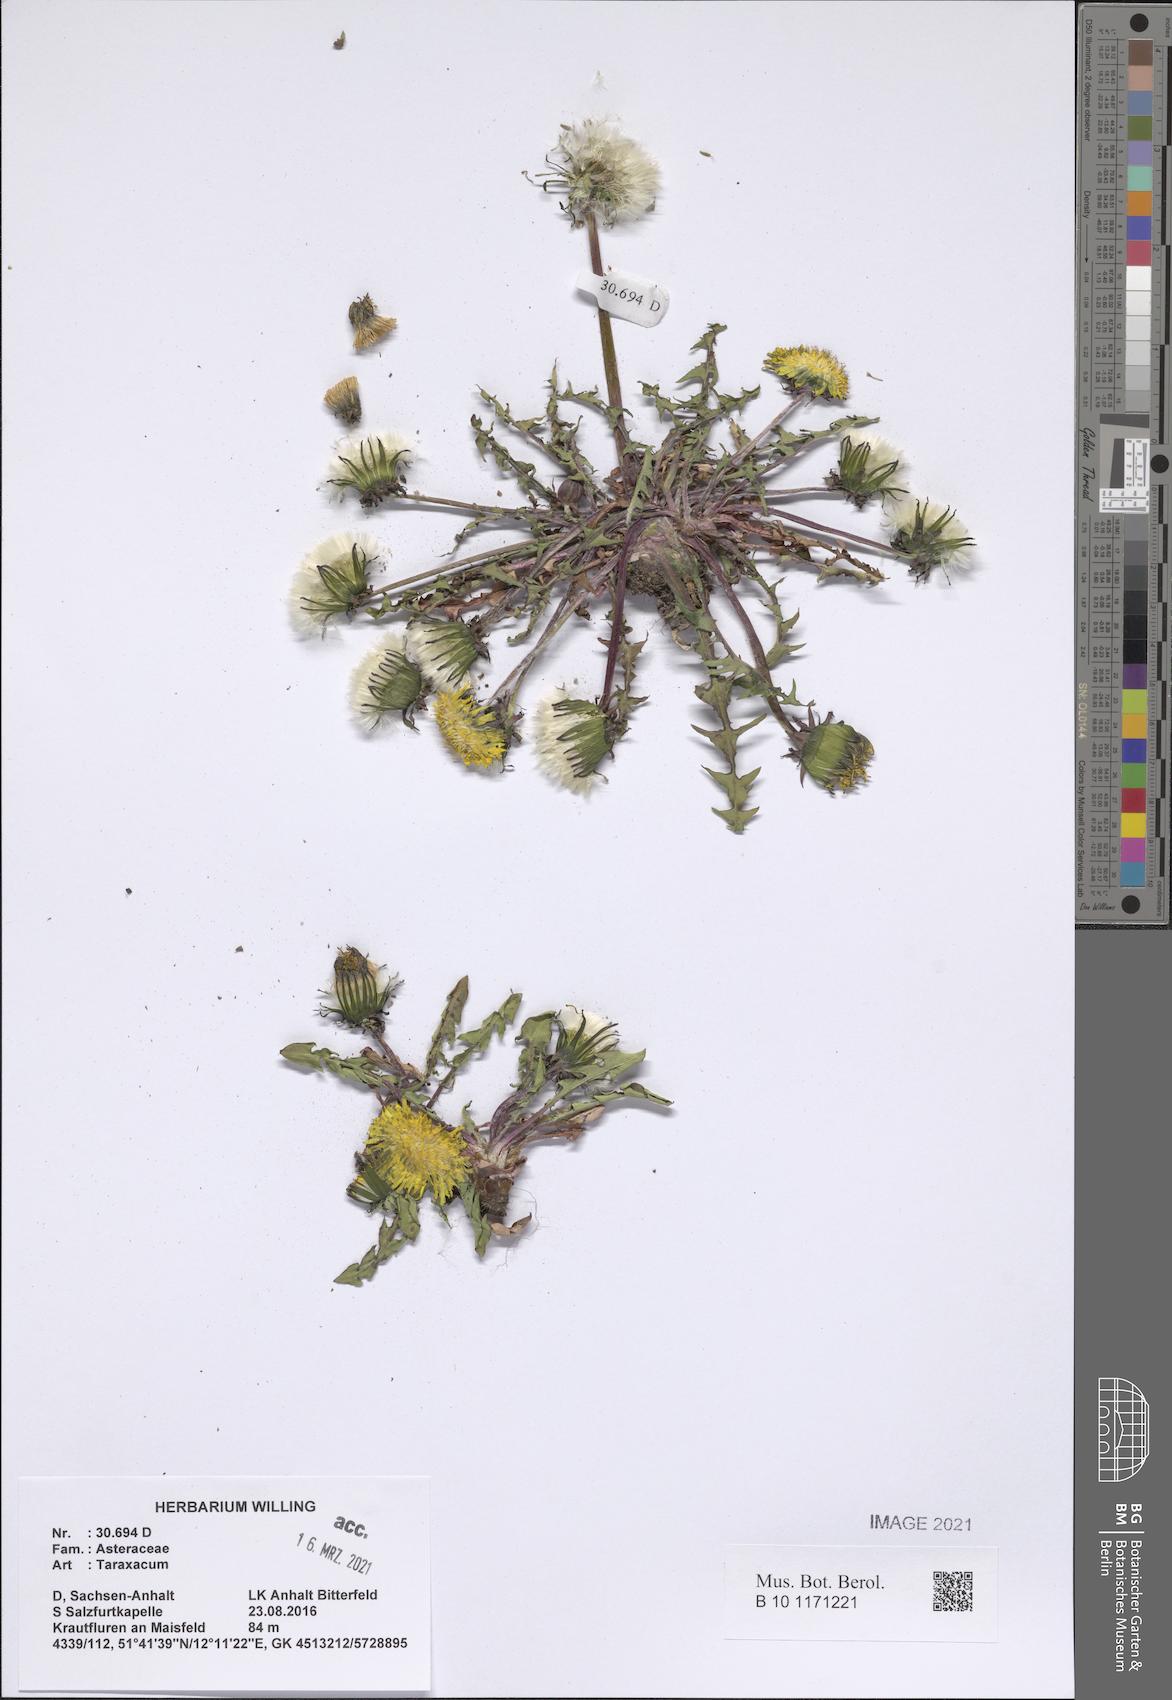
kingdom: Plantae
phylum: Tracheophyta
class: Magnoliopsida
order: Asterales
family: Asteraceae
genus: Taraxacum
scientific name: Taraxacum
